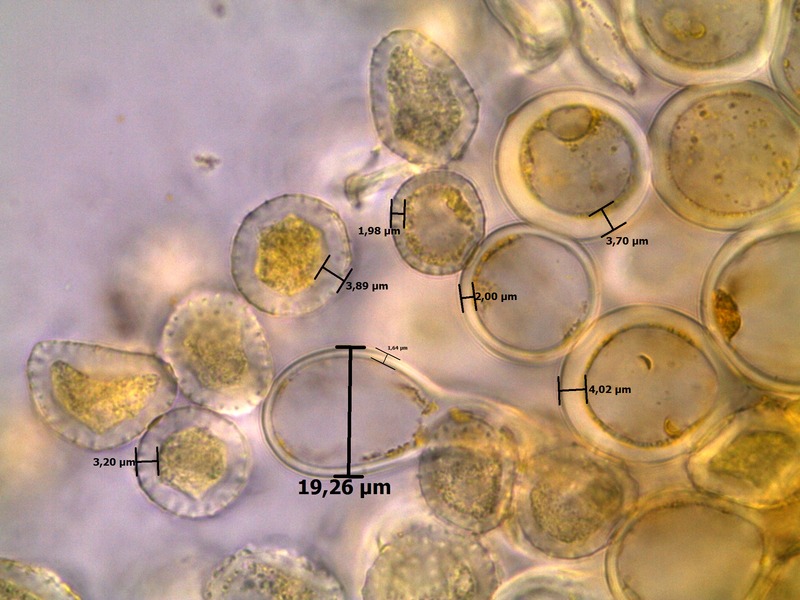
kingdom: Fungi
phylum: Basidiomycota
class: Pucciniomycetes
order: Pucciniales
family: Melampsoraceae
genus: Melampsora
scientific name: Melampsora caprearum
